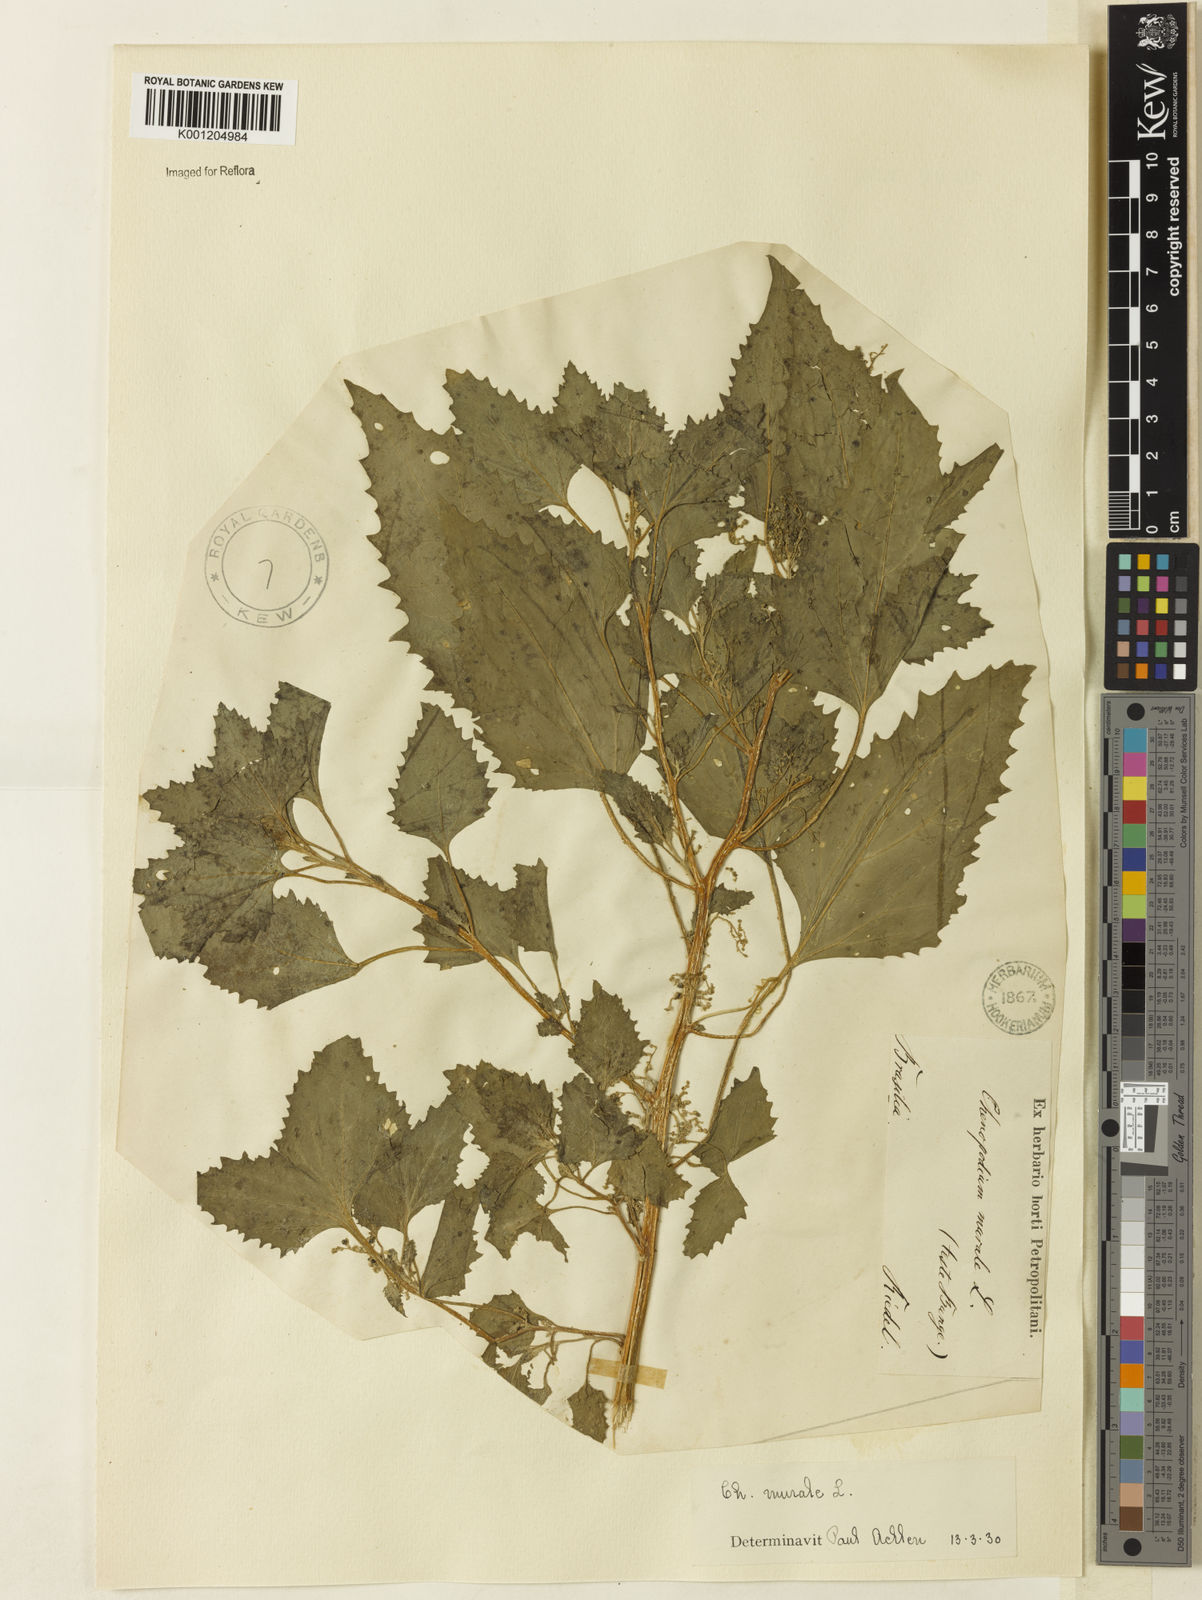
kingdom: Plantae
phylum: Tracheophyta
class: Magnoliopsida
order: Caryophyllales
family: Amaranthaceae
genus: Chenopodiastrum
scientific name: Chenopodiastrum murale
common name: Sowbane
